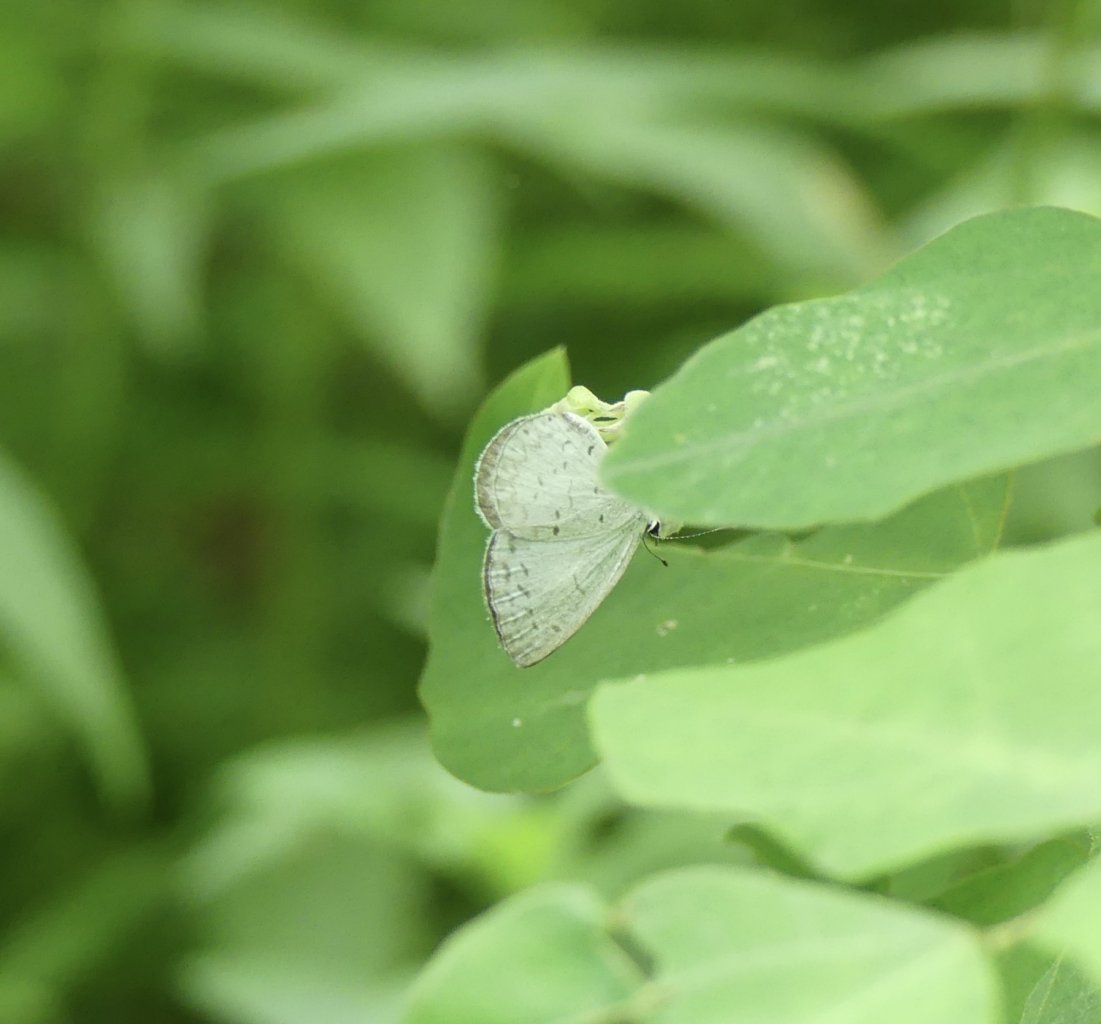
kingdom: Animalia
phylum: Arthropoda
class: Insecta
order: Lepidoptera
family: Lycaenidae
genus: Cyaniris
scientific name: Cyaniris neglecta
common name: Summer Azure
